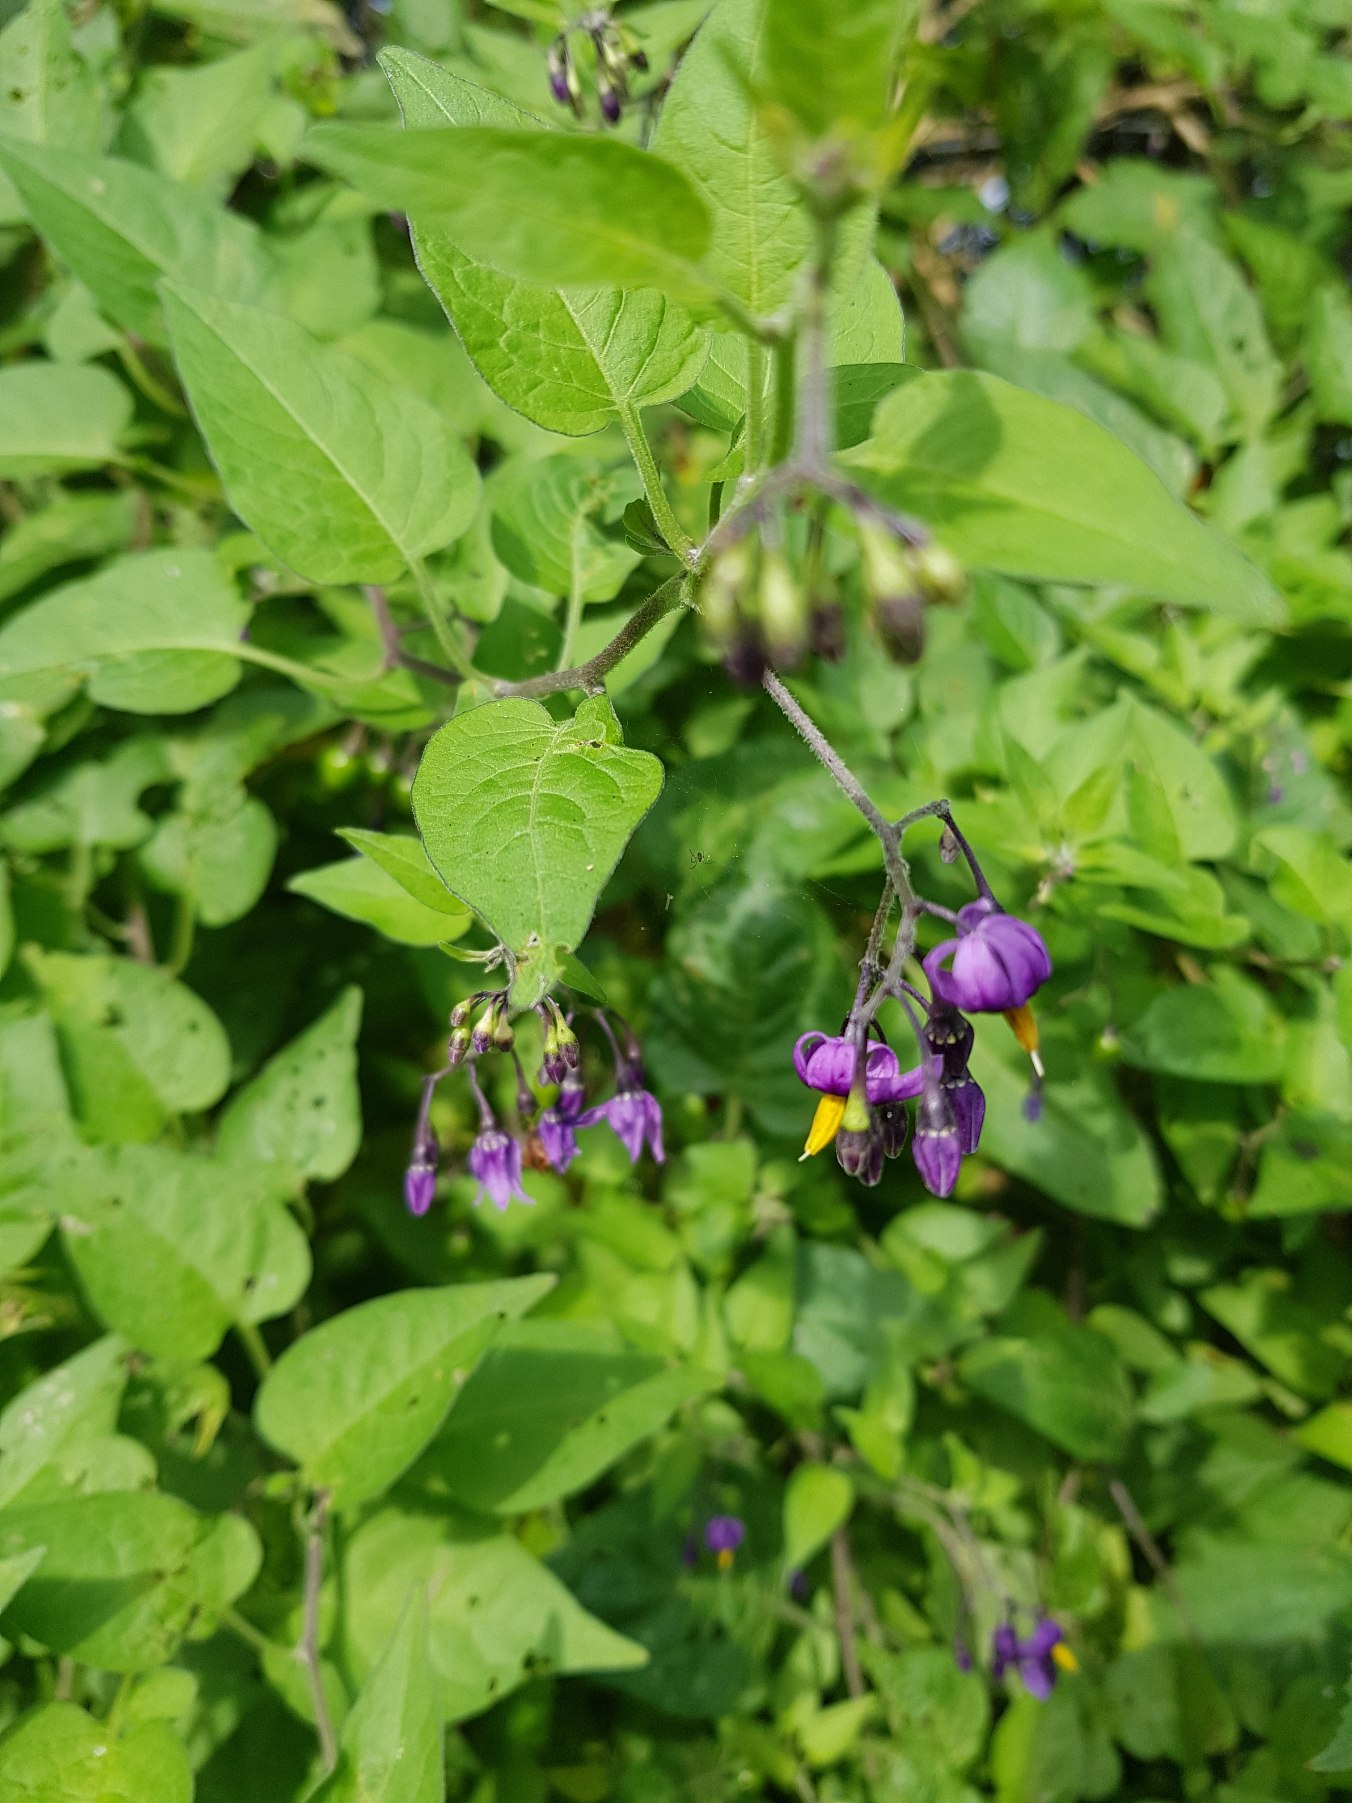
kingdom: Plantae
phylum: Tracheophyta
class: Magnoliopsida
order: Solanales
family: Solanaceae
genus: Solanum
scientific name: Solanum dulcamara
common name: Bittersød natskygge
